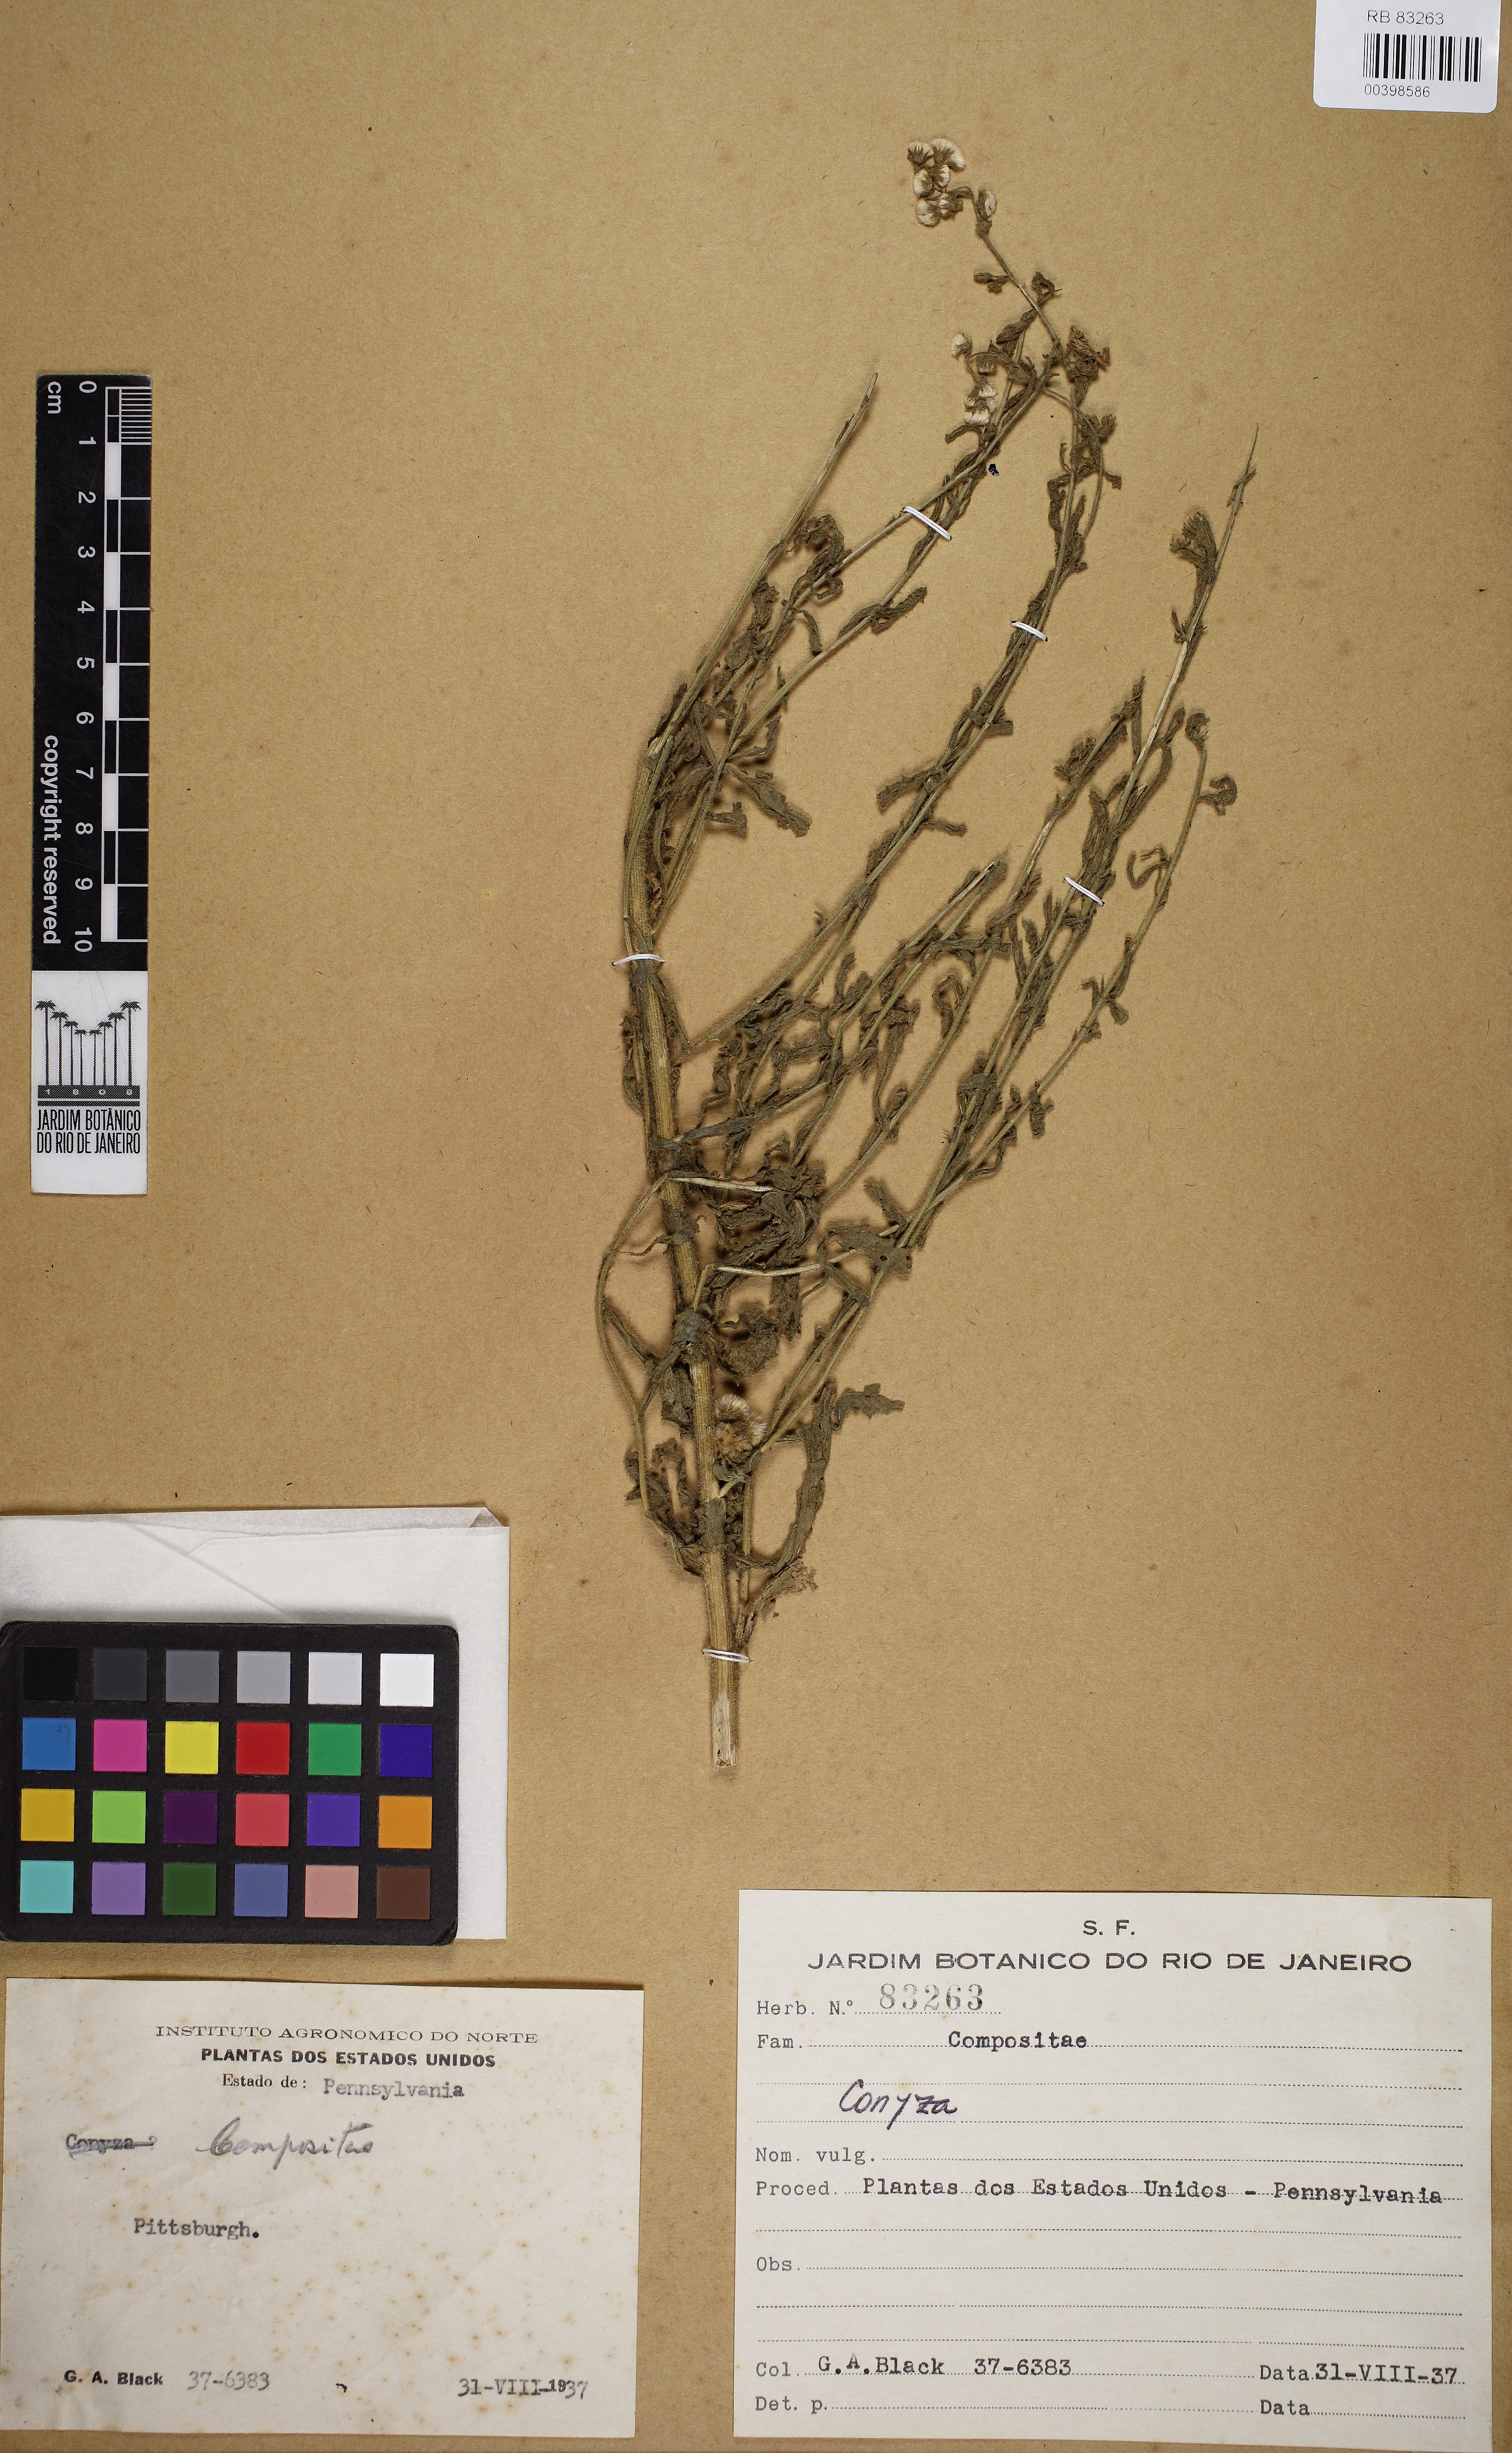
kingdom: Plantae
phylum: Tracheophyta
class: Magnoliopsida
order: Asterales
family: Asteraceae
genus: Conyza
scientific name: Conyza
